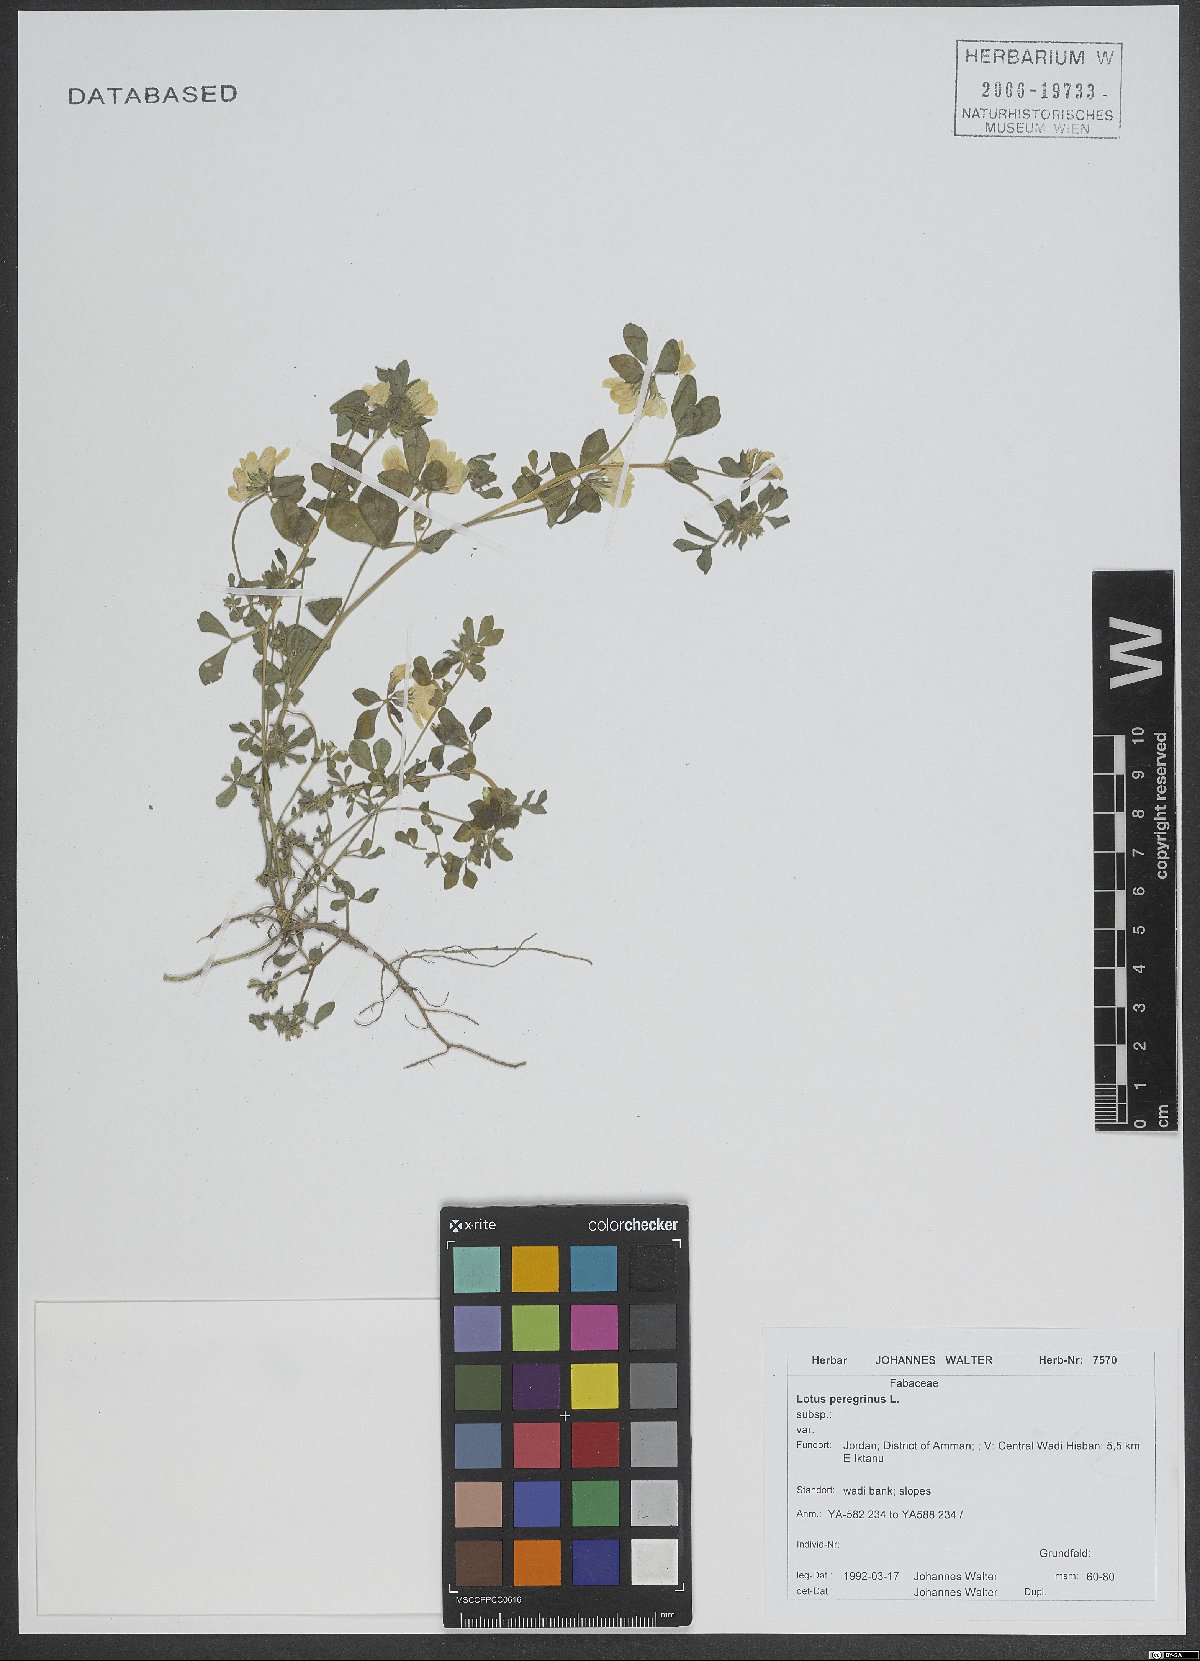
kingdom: Plantae
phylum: Tracheophyta
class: Magnoliopsida
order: Fabales
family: Fabaceae
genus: Lotus
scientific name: Lotus peregrinus
